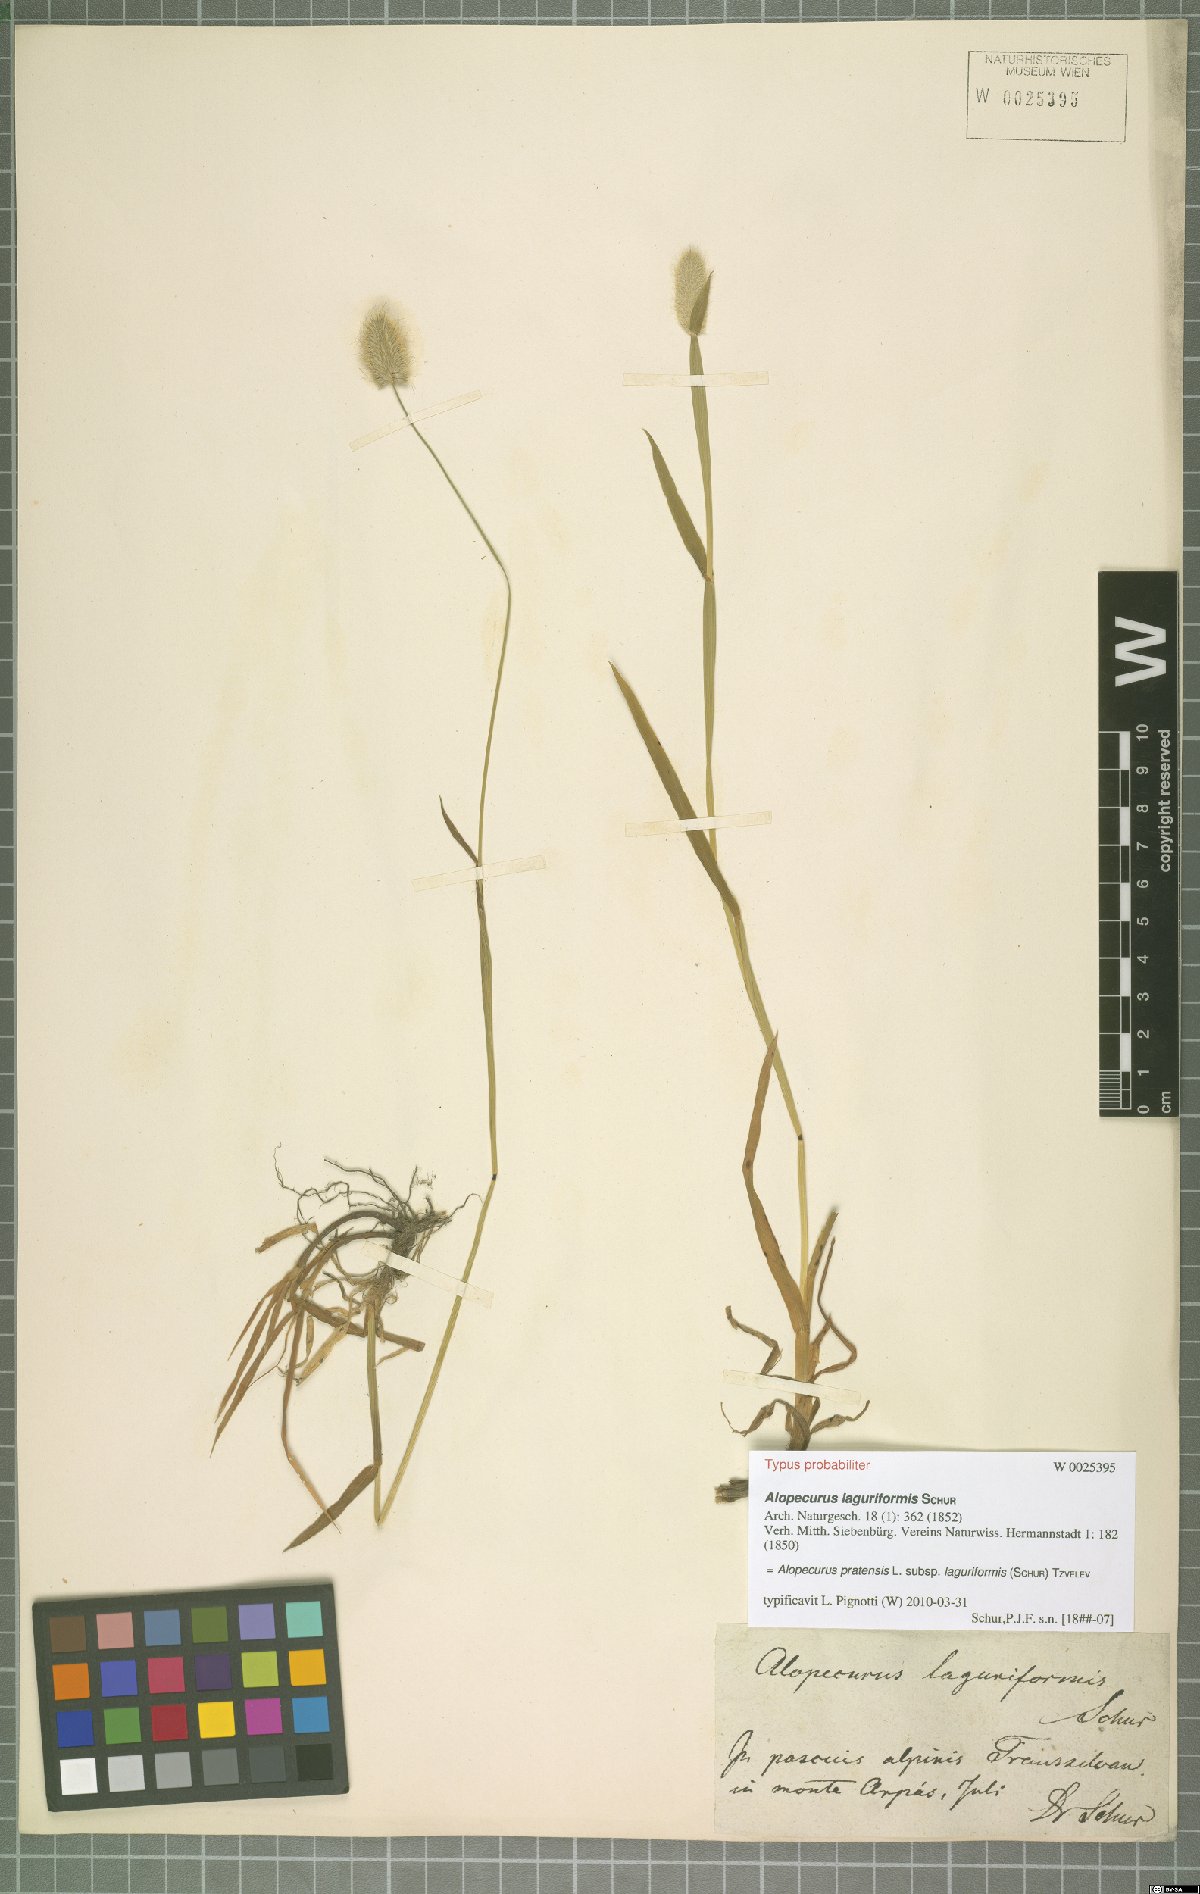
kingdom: Plantae
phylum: Tracheophyta
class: Liliopsida
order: Poales
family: Poaceae
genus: Alopecurus
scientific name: Alopecurus pratensis
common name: Meadow foxtail
